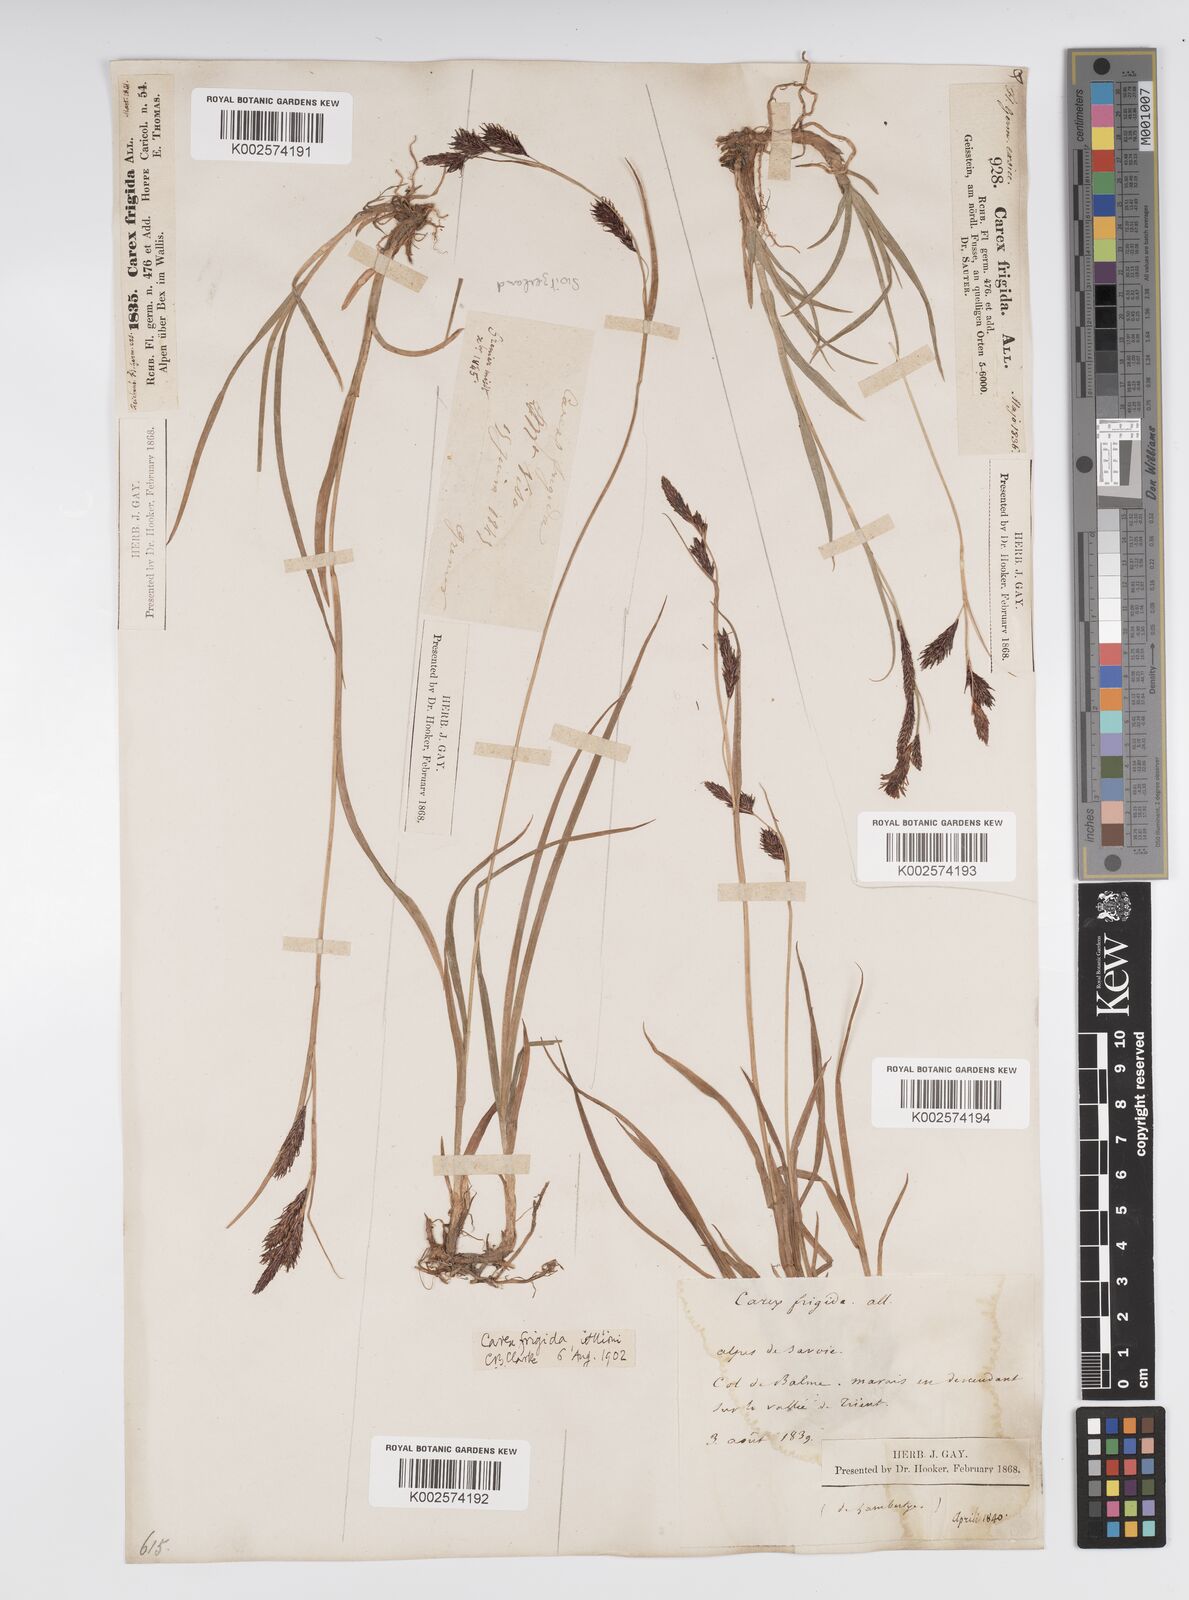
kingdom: Plantae
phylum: Tracheophyta
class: Liliopsida
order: Poales
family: Cyperaceae
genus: Carex
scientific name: Carex frigida
